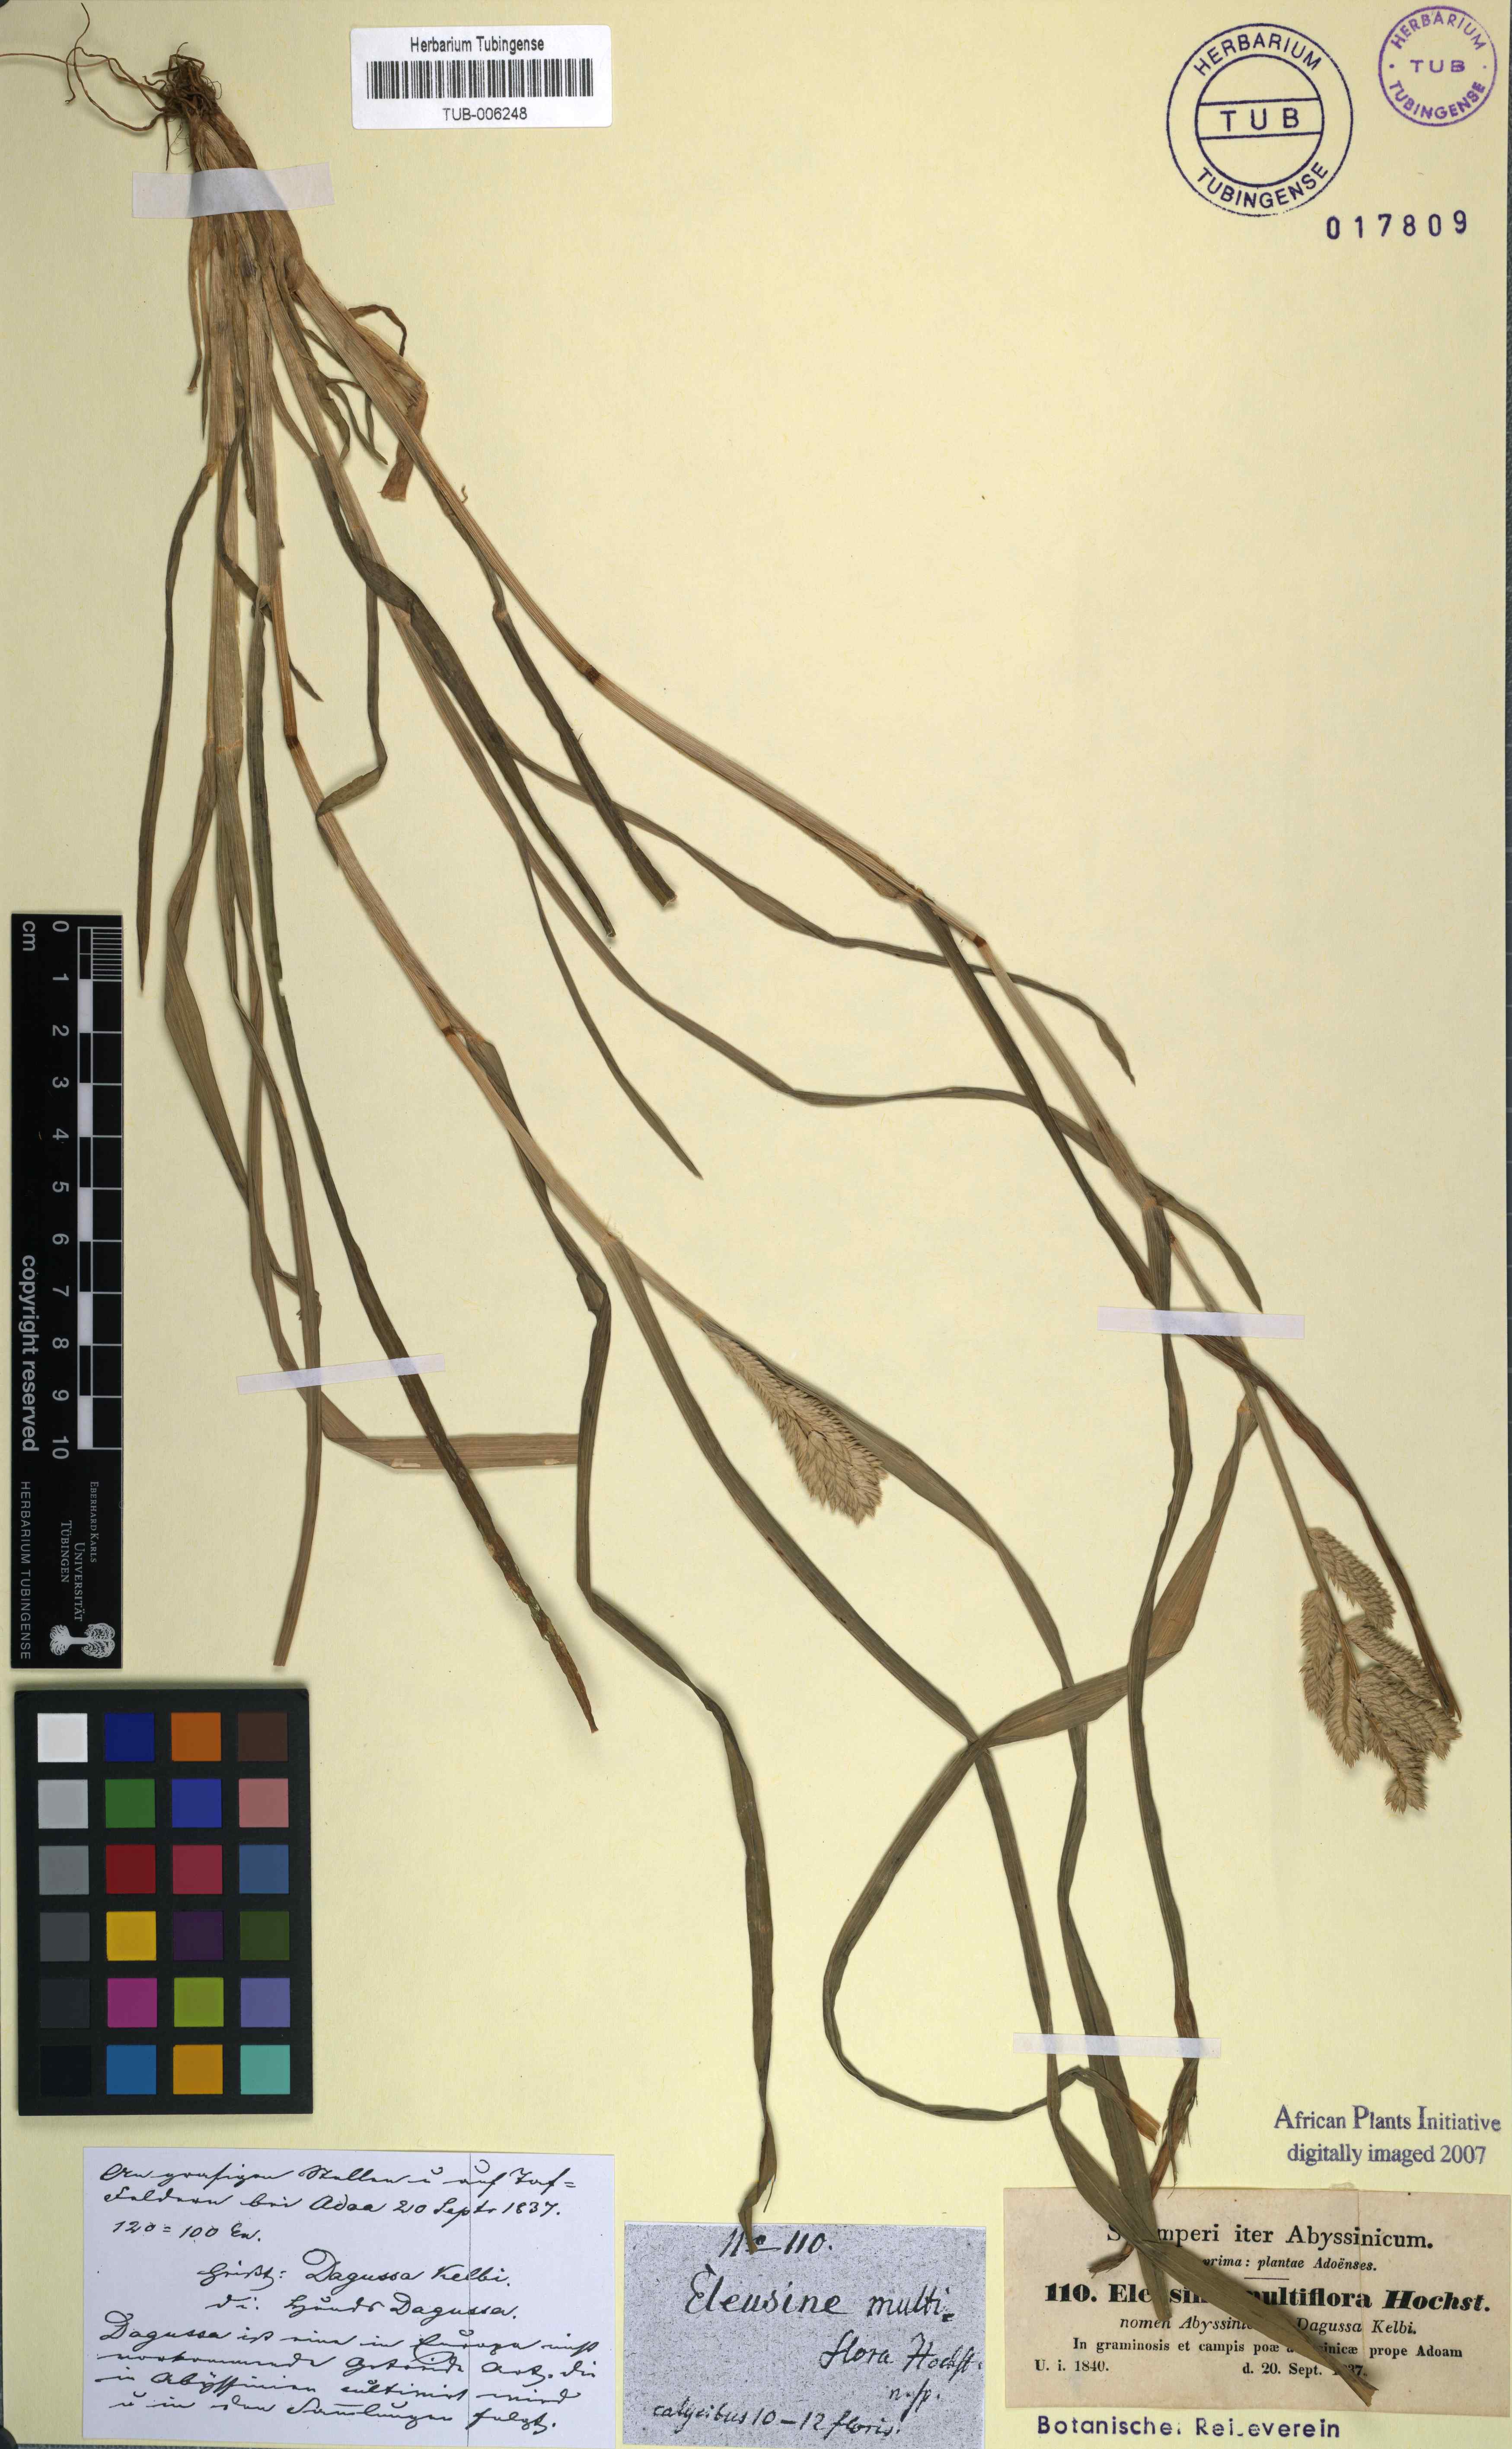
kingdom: Plantae
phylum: Tracheophyta
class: Liliopsida
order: Poales
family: Poaceae
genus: Eleusine
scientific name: Eleusine multiflora
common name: Fat-spiked yard-grass
